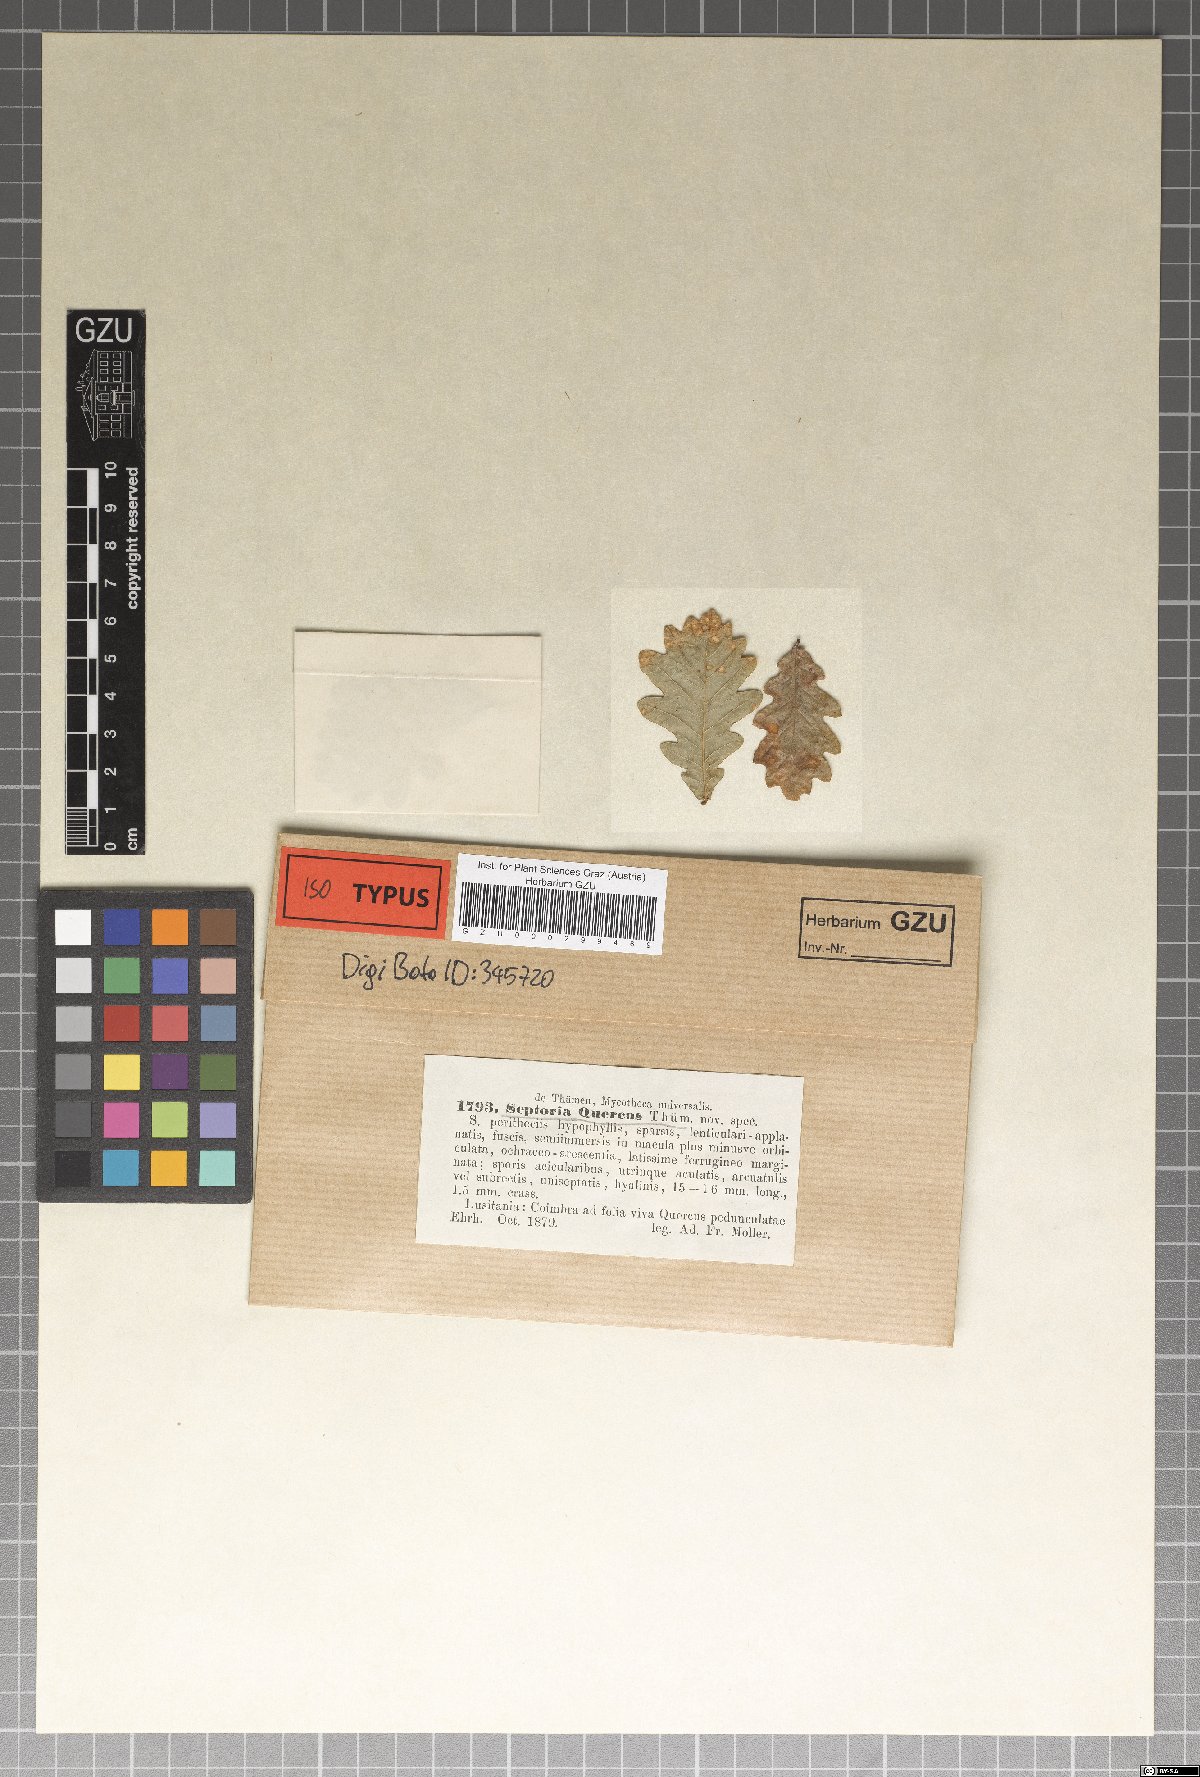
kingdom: Fungi
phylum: Ascomycota
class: Dothideomycetes
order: Mycosphaerellales
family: Mycosphaerellaceae
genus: Septoria
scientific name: Septoria quercina
